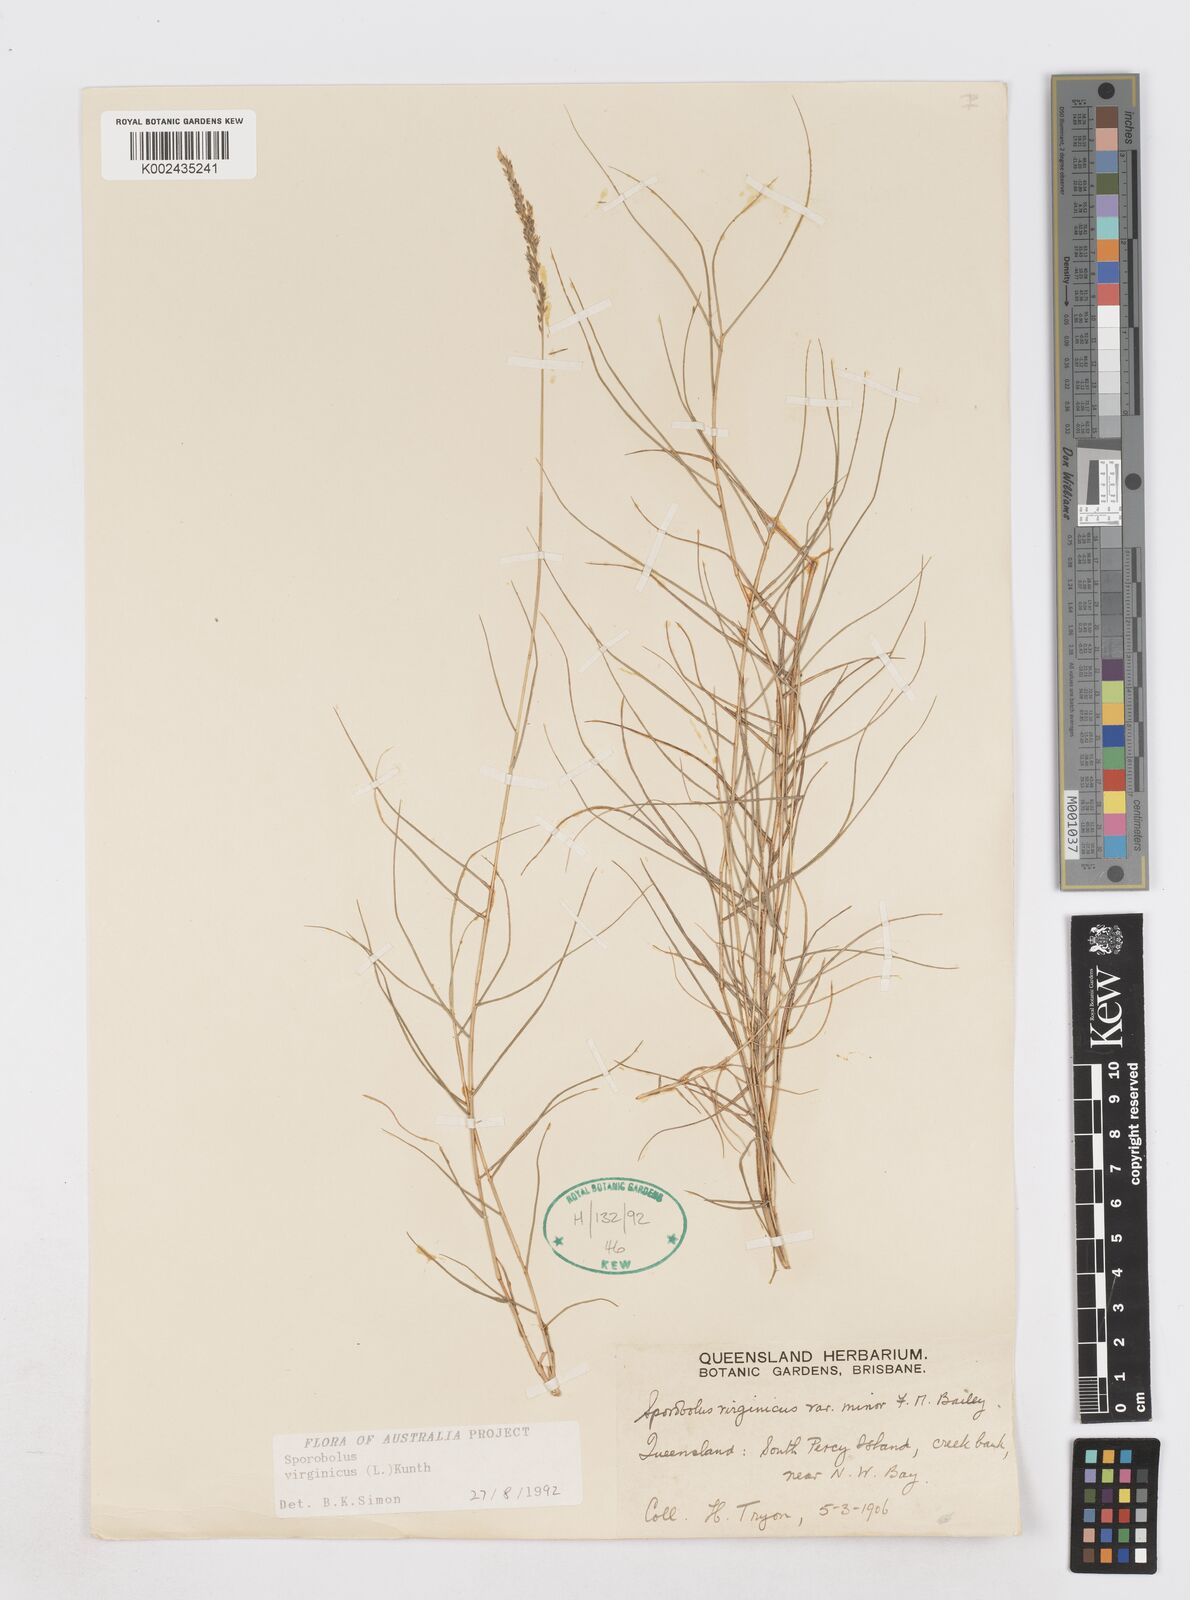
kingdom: Plantae
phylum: Tracheophyta
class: Liliopsida
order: Poales
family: Poaceae
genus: Sporobolus
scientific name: Sporobolus virginicus
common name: Beach dropseed
